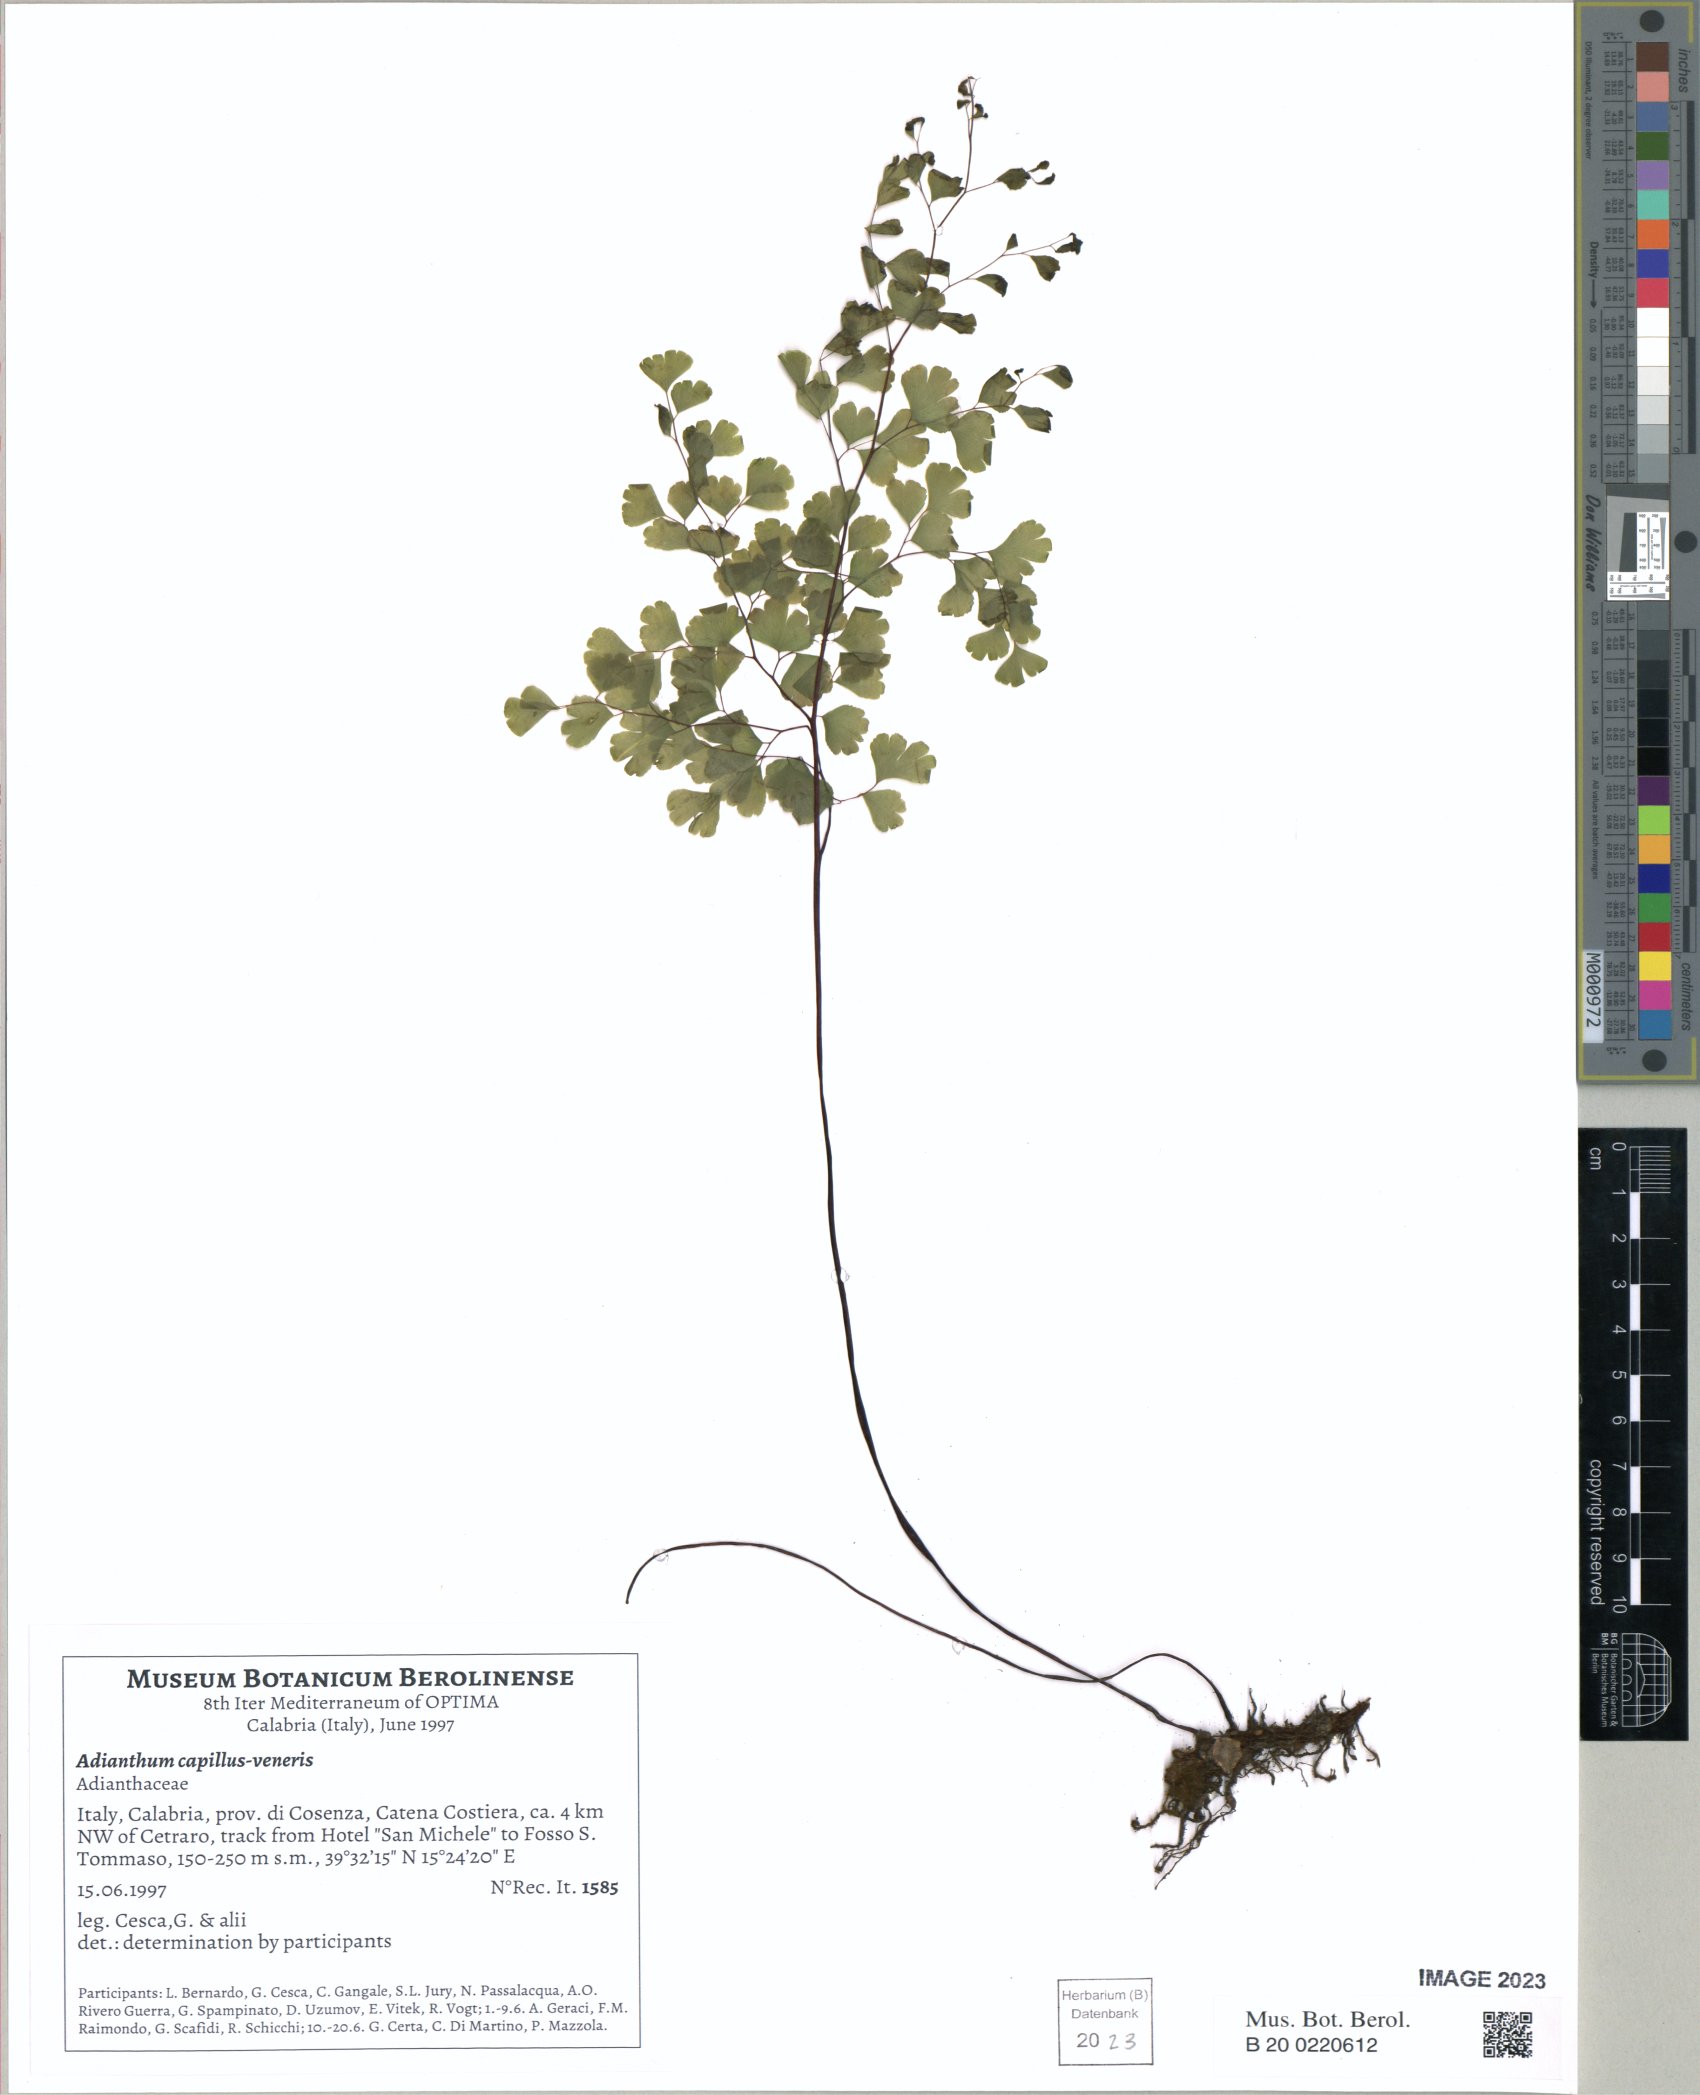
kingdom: Plantae
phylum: Tracheophyta
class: Polypodiopsida
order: Polypodiales
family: Pteridaceae
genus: Adiantum
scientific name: Adiantum capillus-veneris
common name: Maidenhair fern
